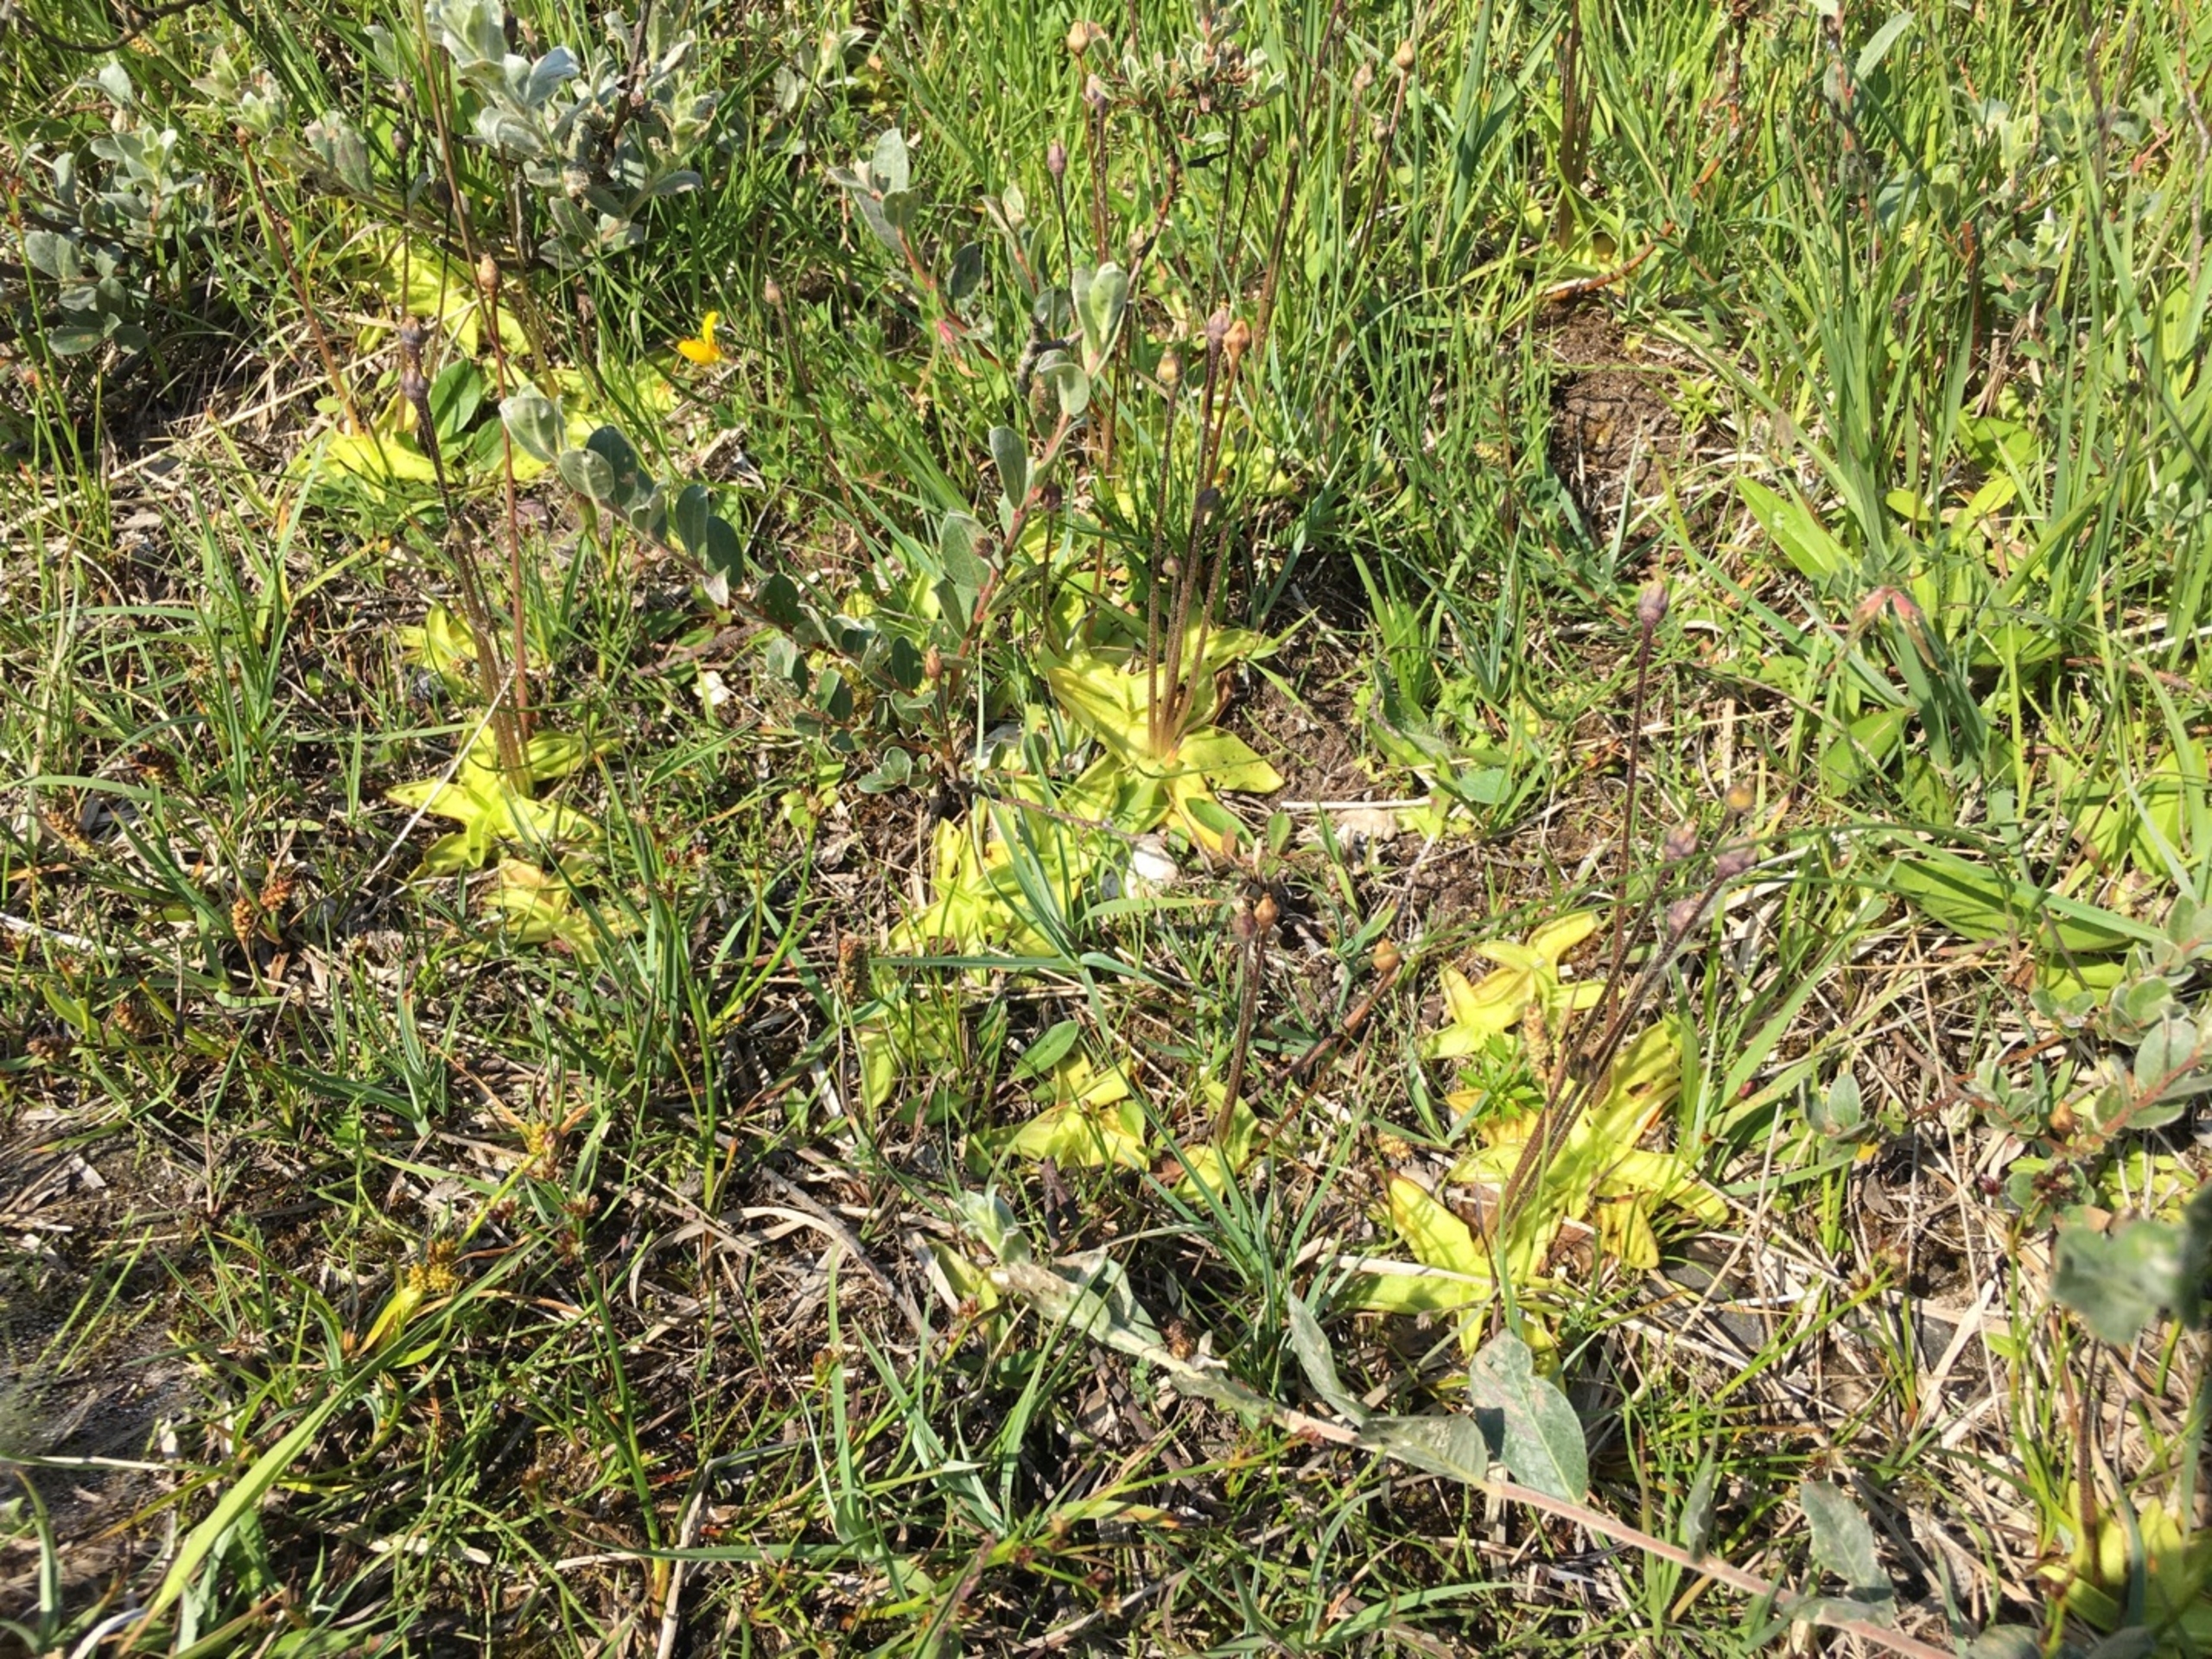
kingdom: Plantae
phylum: Tracheophyta
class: Magnoliopsida
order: Lamiales
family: Lentibulariaceae
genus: Pinguicula
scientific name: Pinguicula vulgaris
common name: Vibefedt
